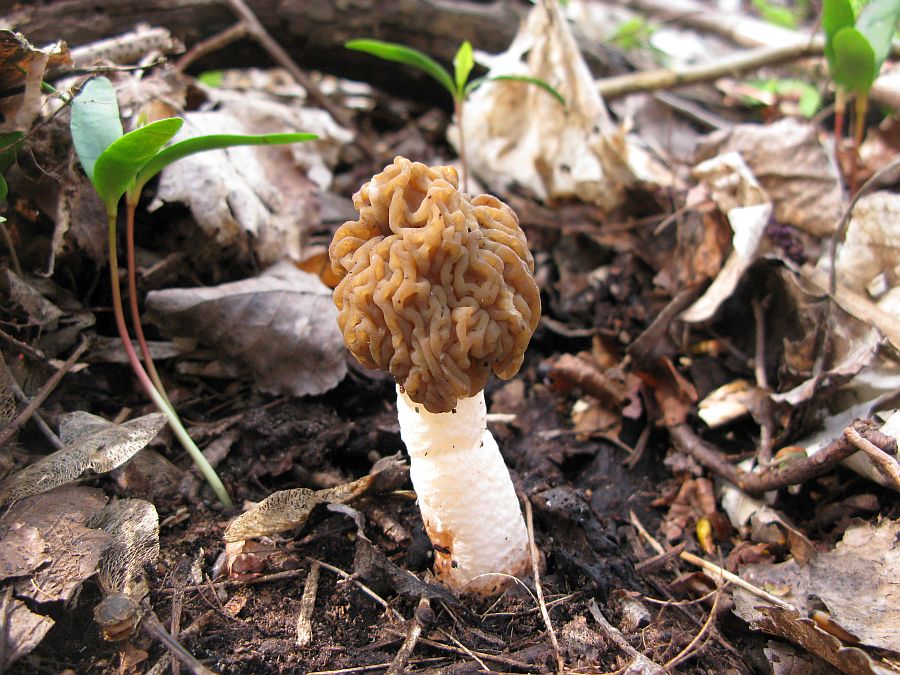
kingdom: Fungi
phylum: Ascomycota
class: Pezizomycetes
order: Pezizales
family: Morchellaceae
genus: Verpa
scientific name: Verpa bohemica
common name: rynket klokkemorkel
